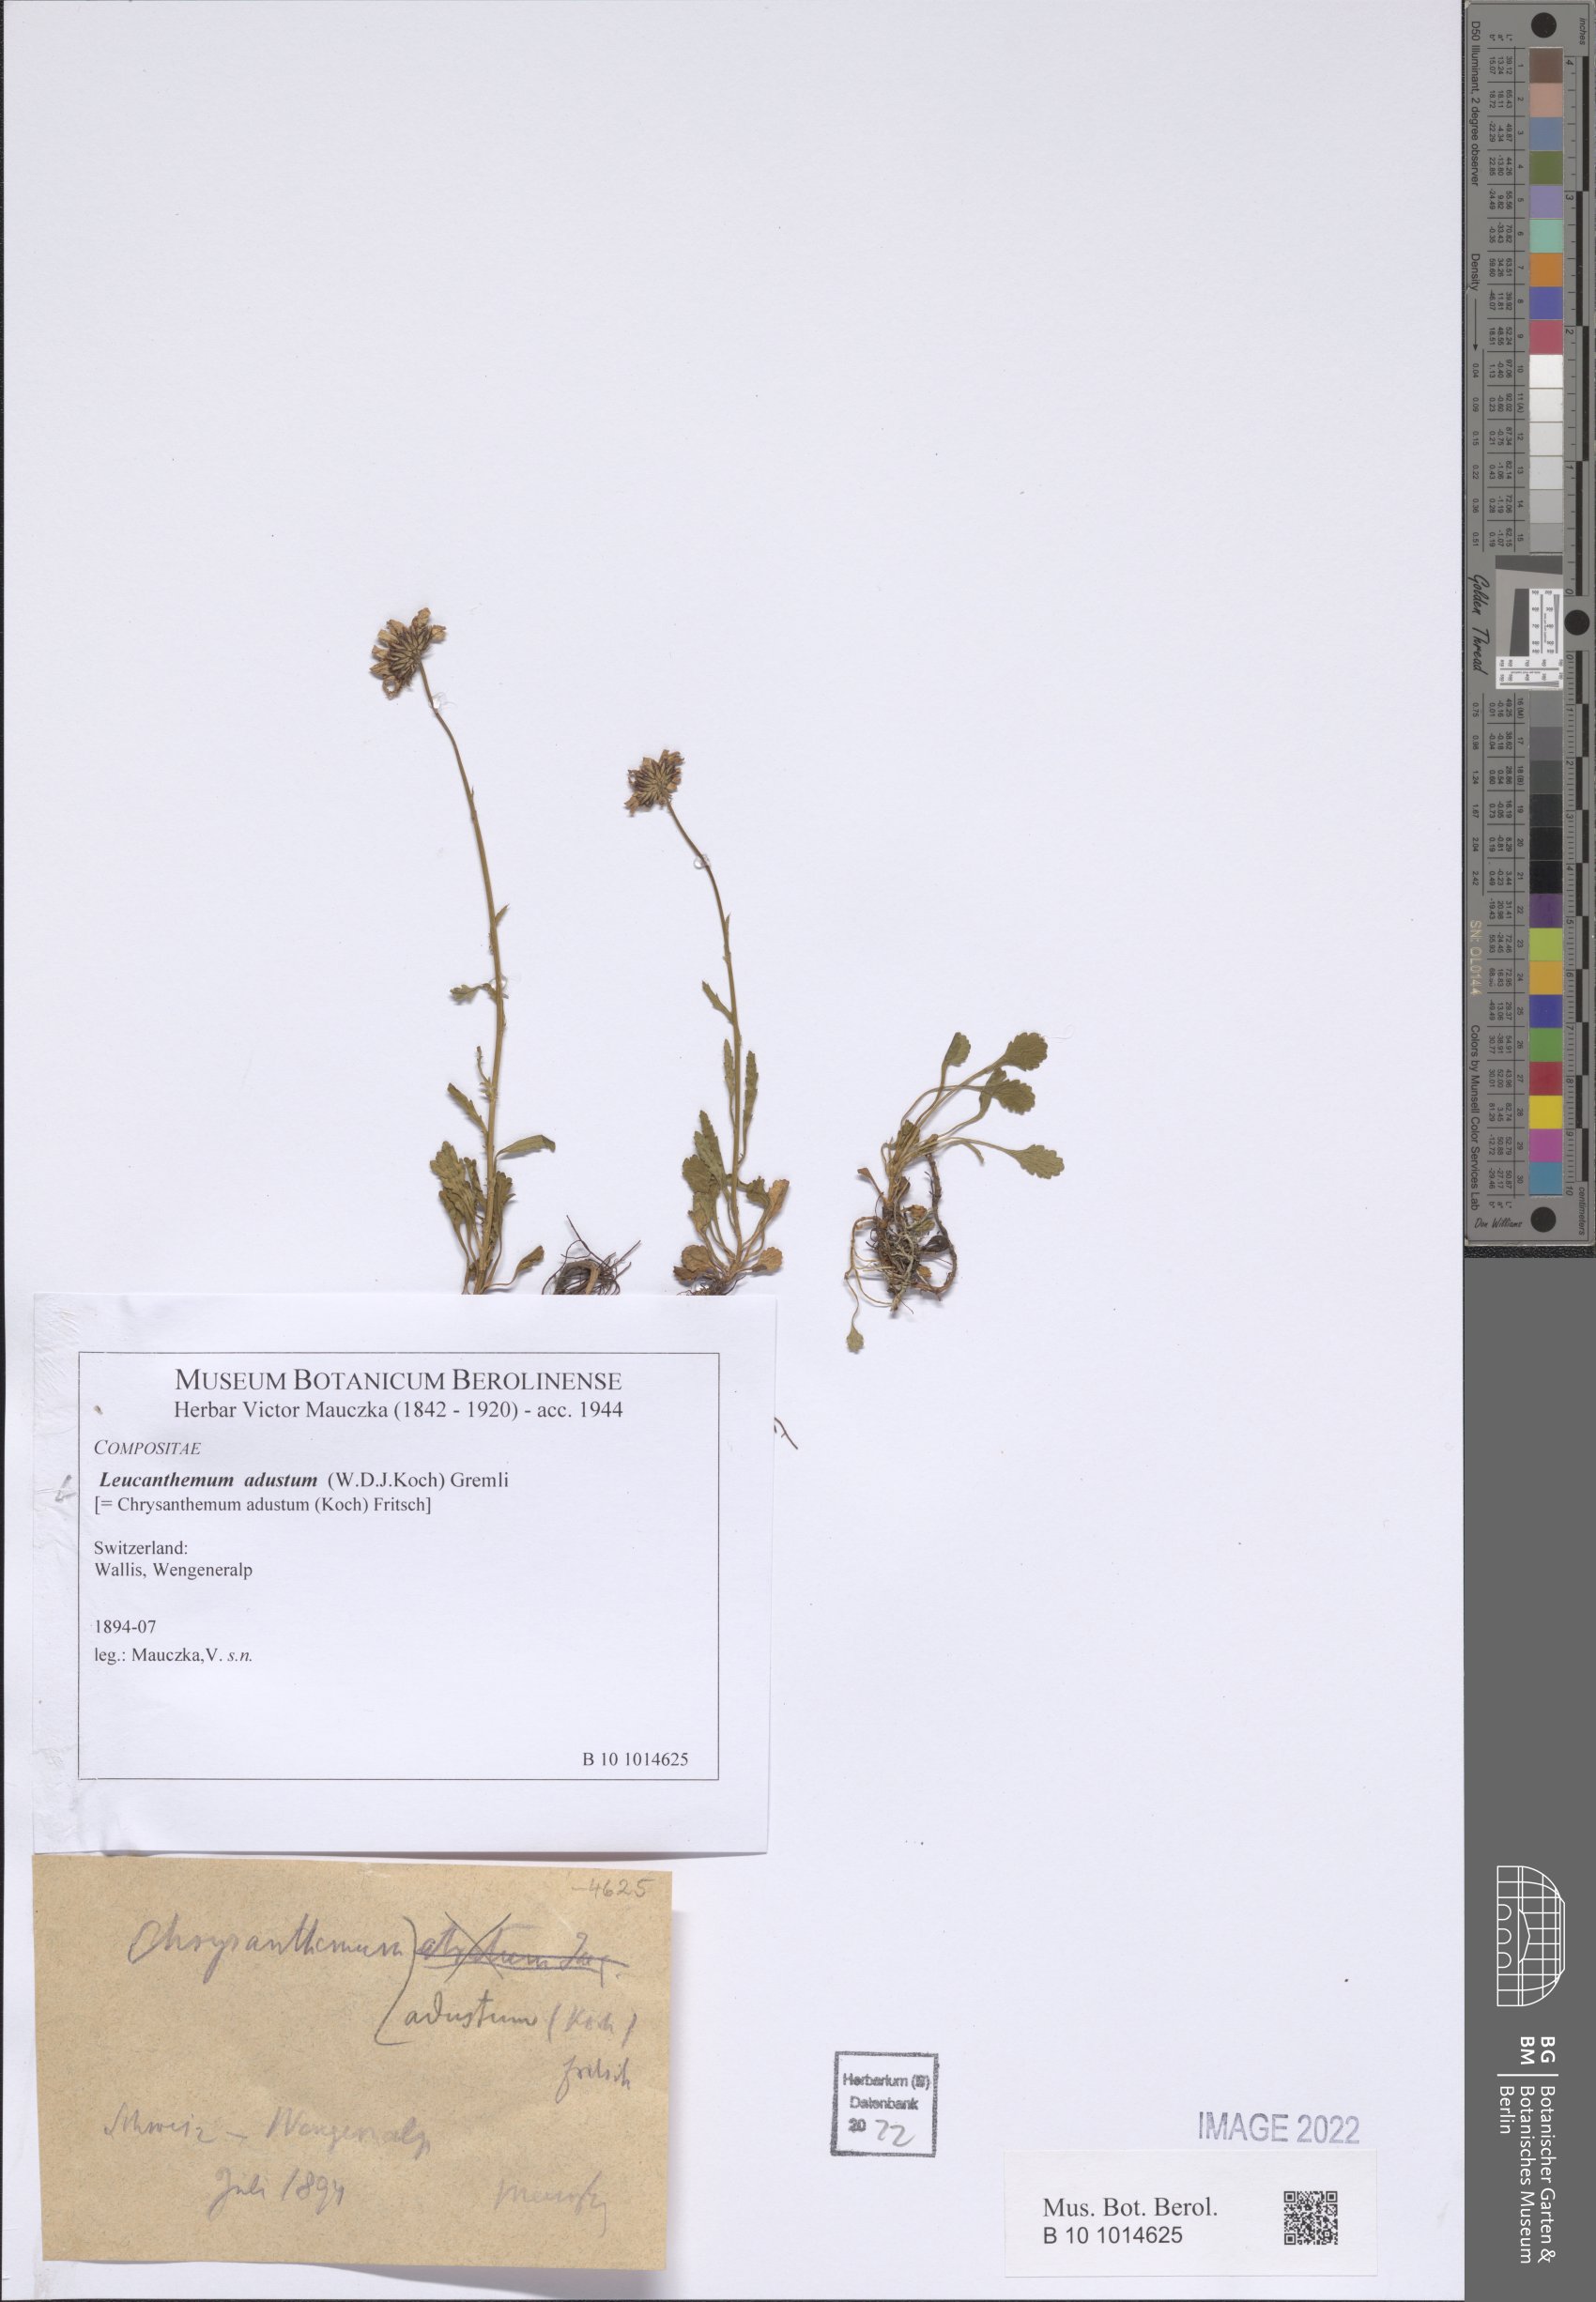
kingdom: Plantae
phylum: Tracheophyta
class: Magnoliopsida
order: Asterales
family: Asteraceae
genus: Leucanthemum
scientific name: Leucanthemum vulgare
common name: Oxeye daisy
